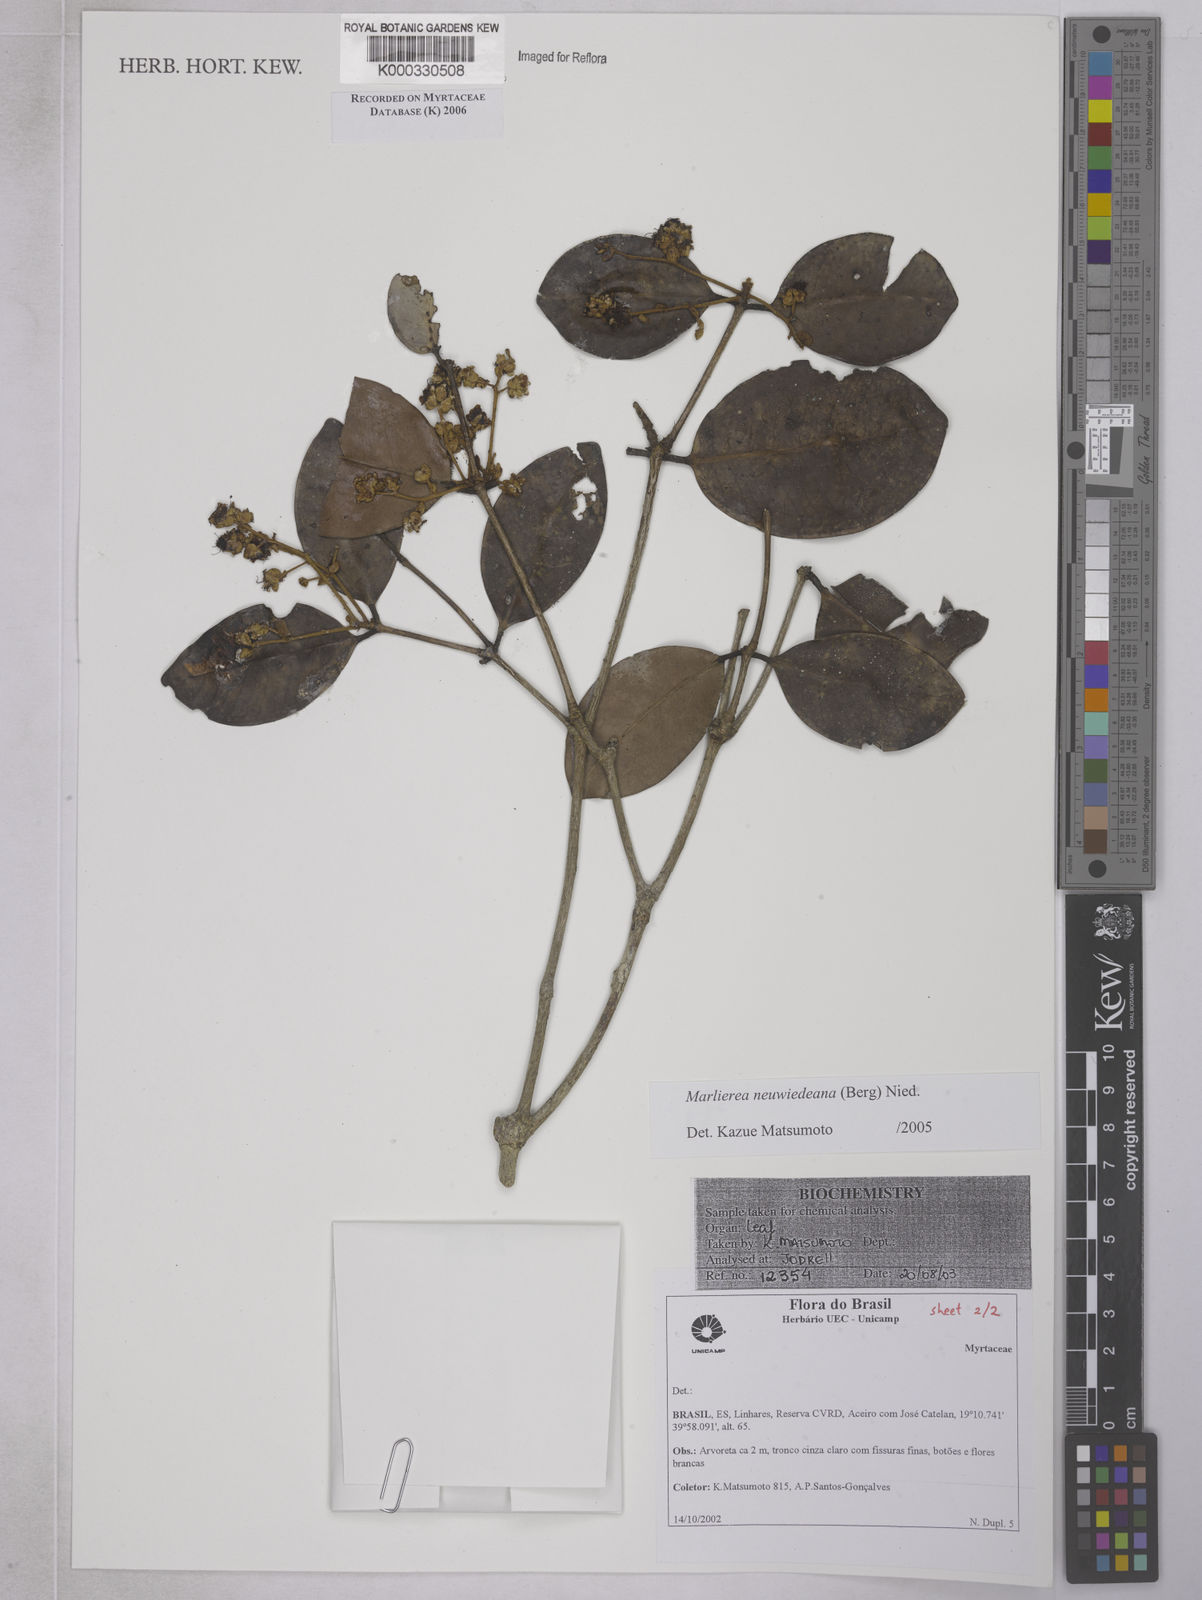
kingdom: Plantae
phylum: Tracheophyta
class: Magnoliopsida
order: Myrtales
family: Myrtaceae
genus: Myrcia
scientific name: Myrcia neuwiedeana
